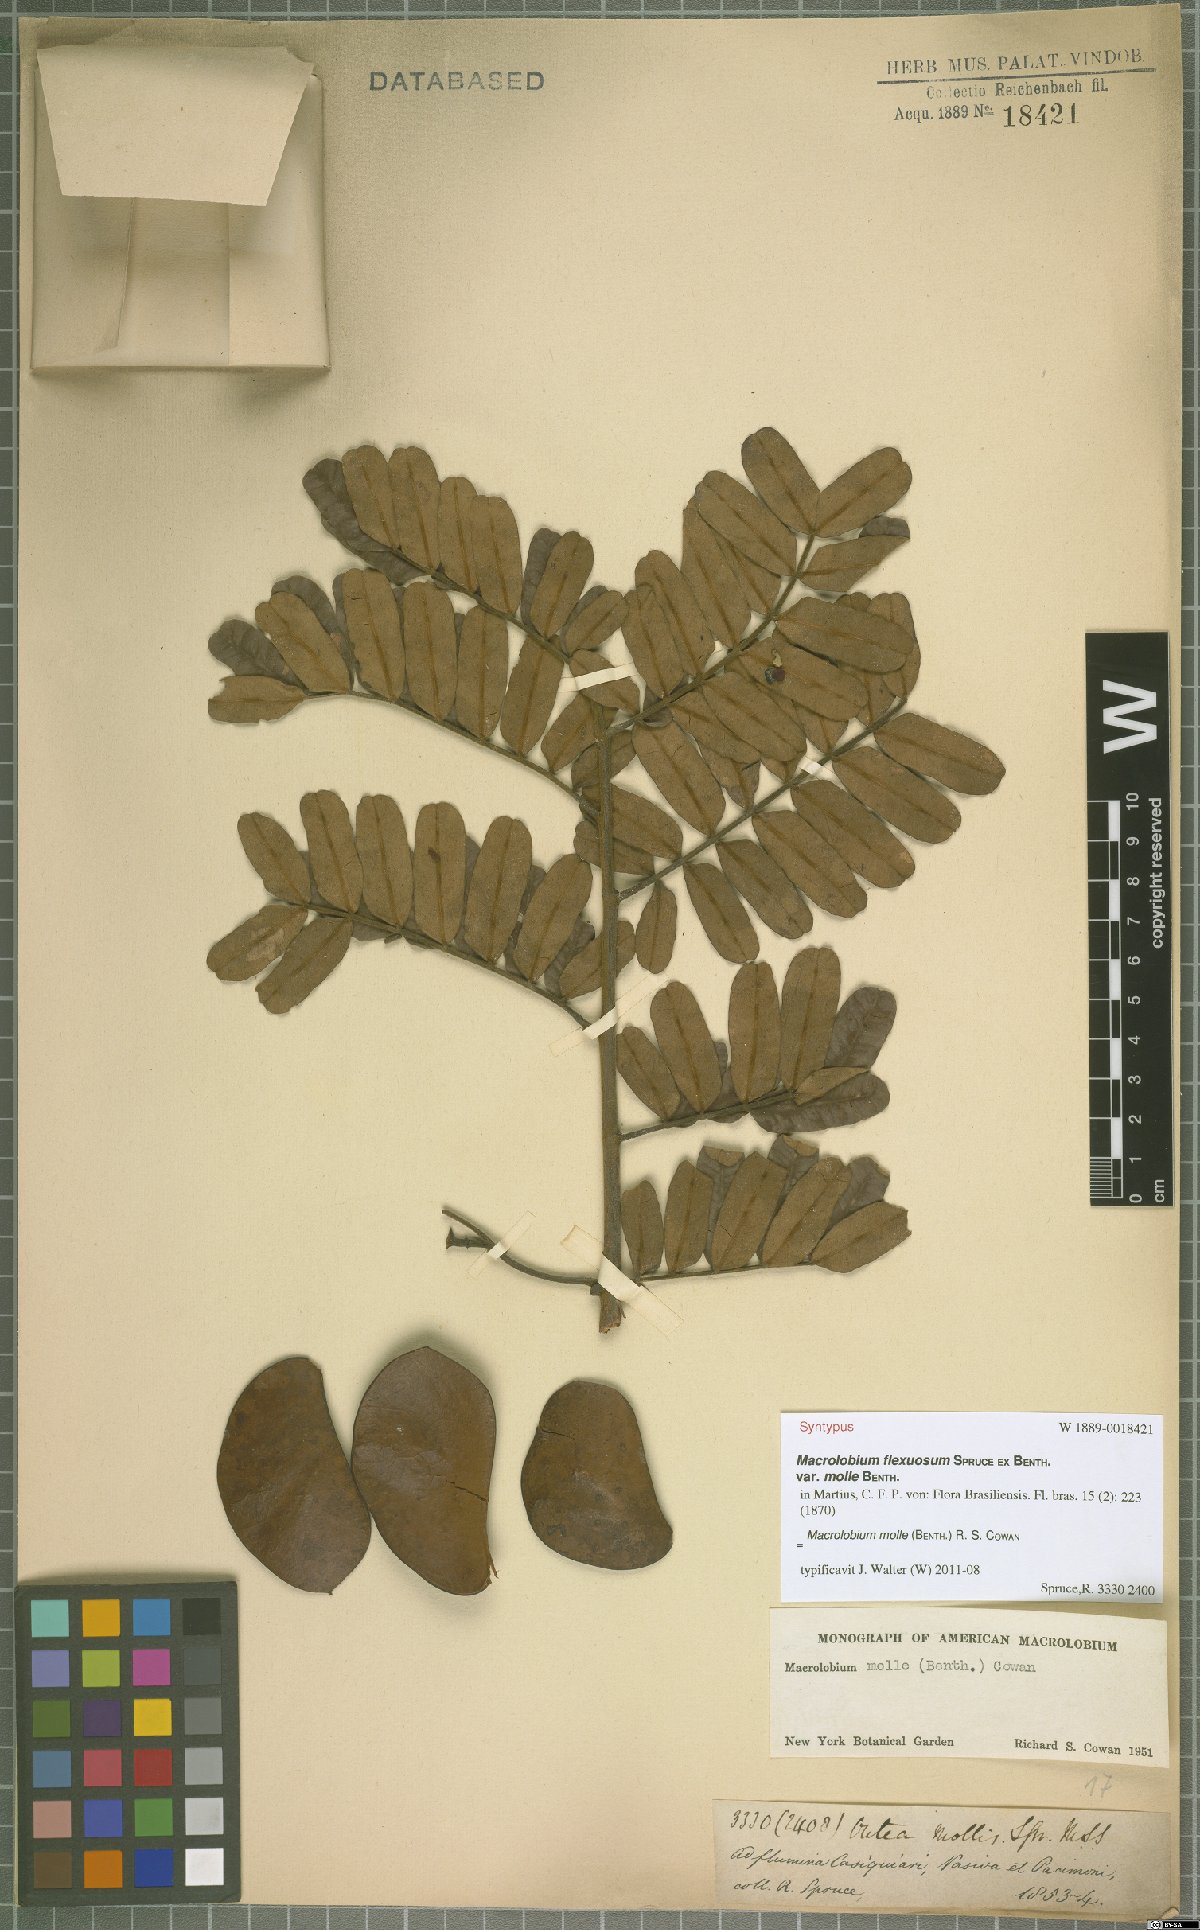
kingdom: Plantae
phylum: Tracheophyta
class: Magnoliopsida
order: Fabales
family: Fabaceae
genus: Macrolobium
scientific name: Macrolobium molle
